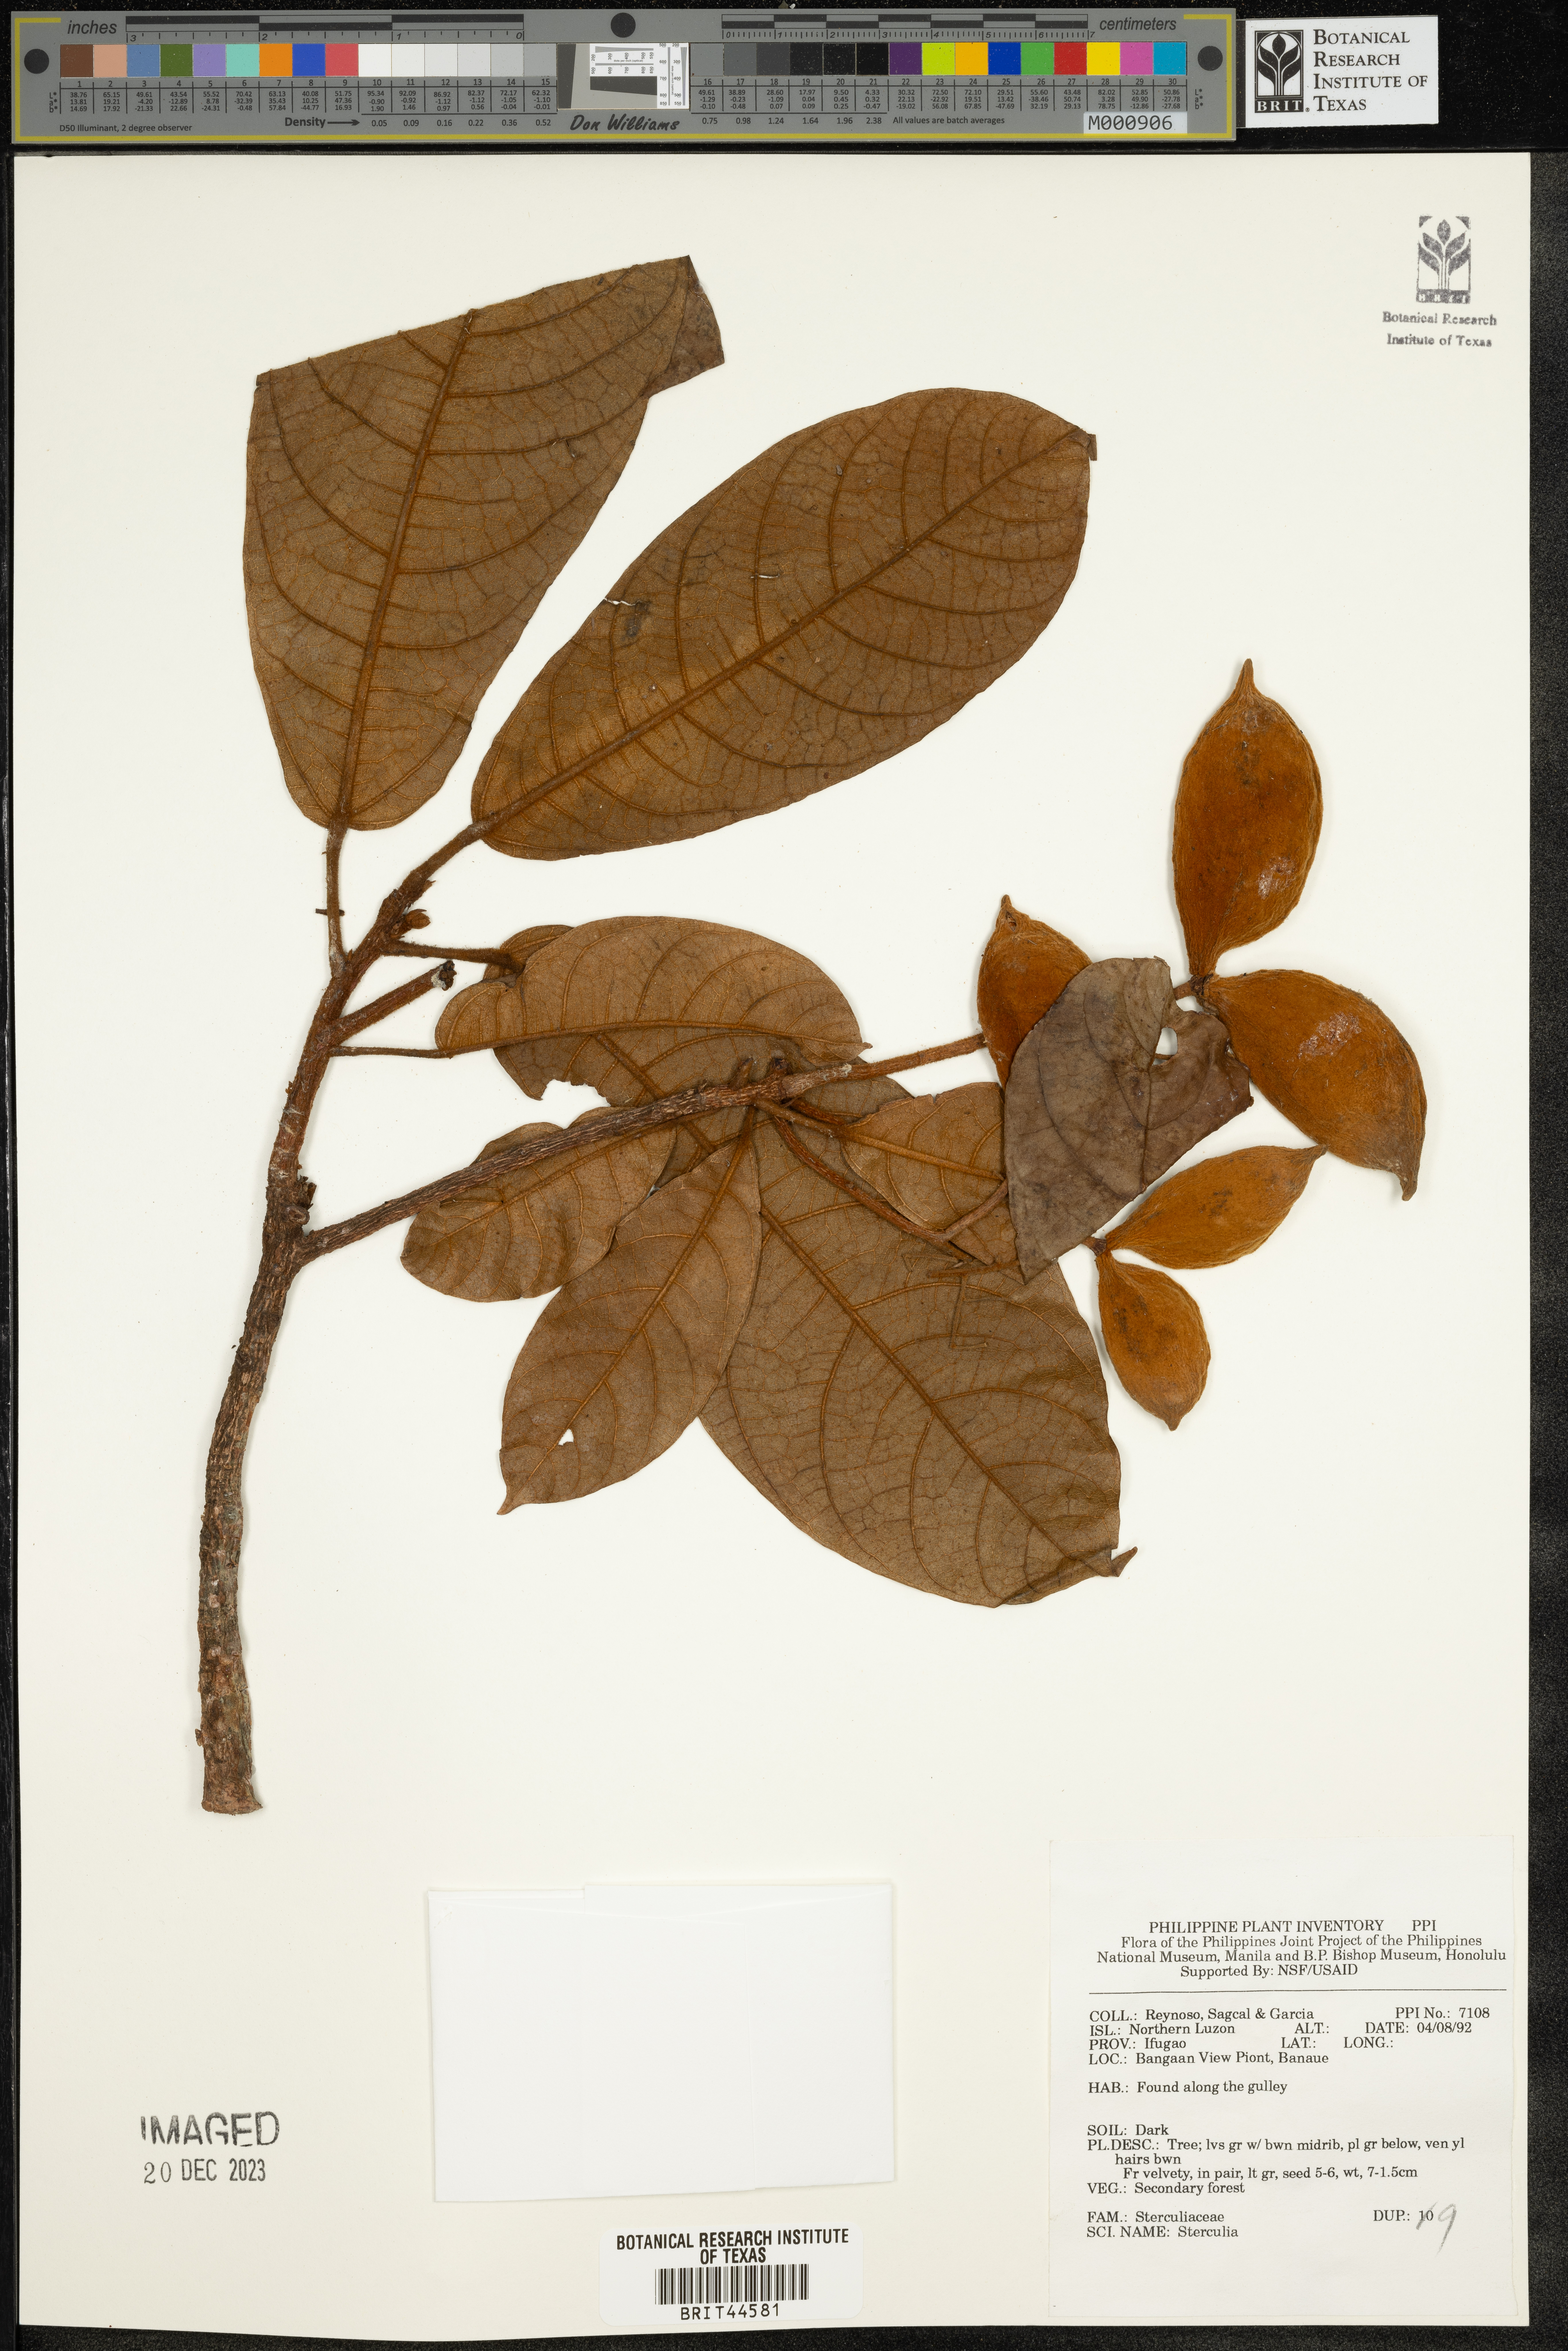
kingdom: Plantae
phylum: Tracheophyta
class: Magnoliopsida
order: Malvales
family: Malvaceae
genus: Sterculia
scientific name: Sterculia
